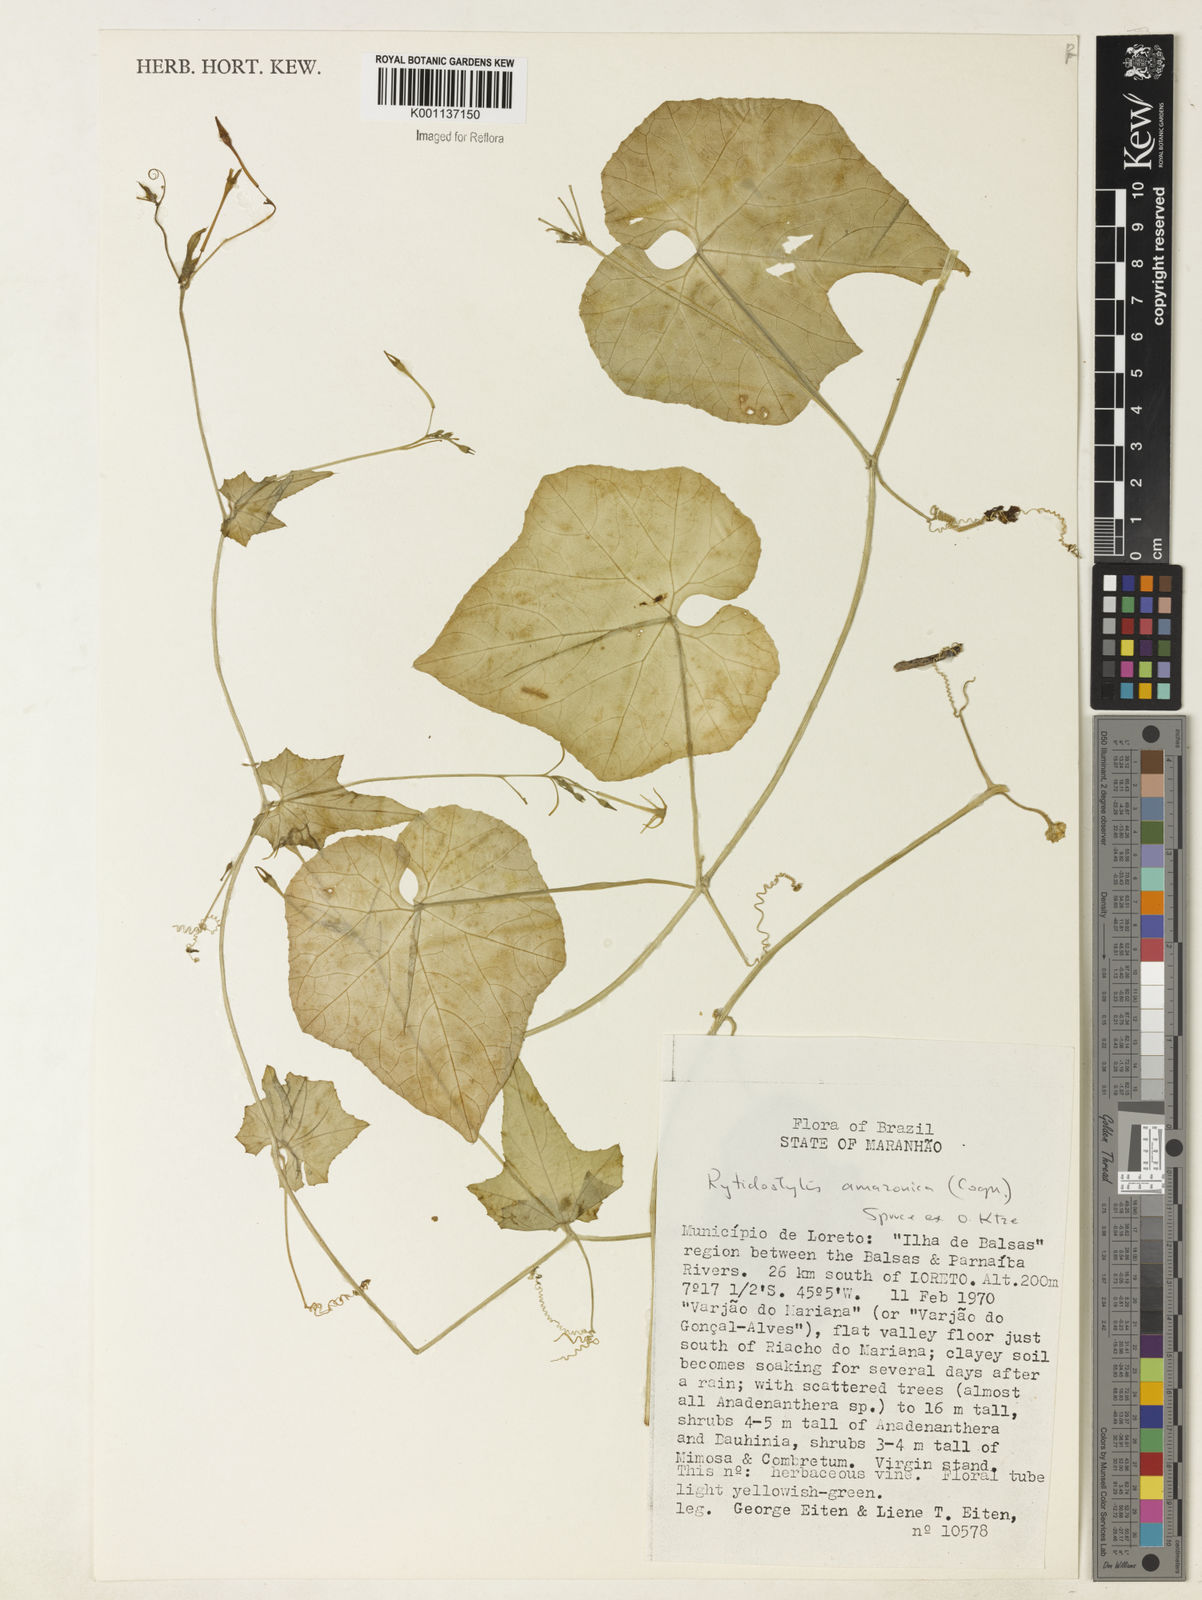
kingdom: Plantae
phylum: Tracheophyta
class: Magnoliopsida
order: Cucurbitales
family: Cucurbitaceae
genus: Cyclanthera
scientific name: Cyclanthera carthagenensis
